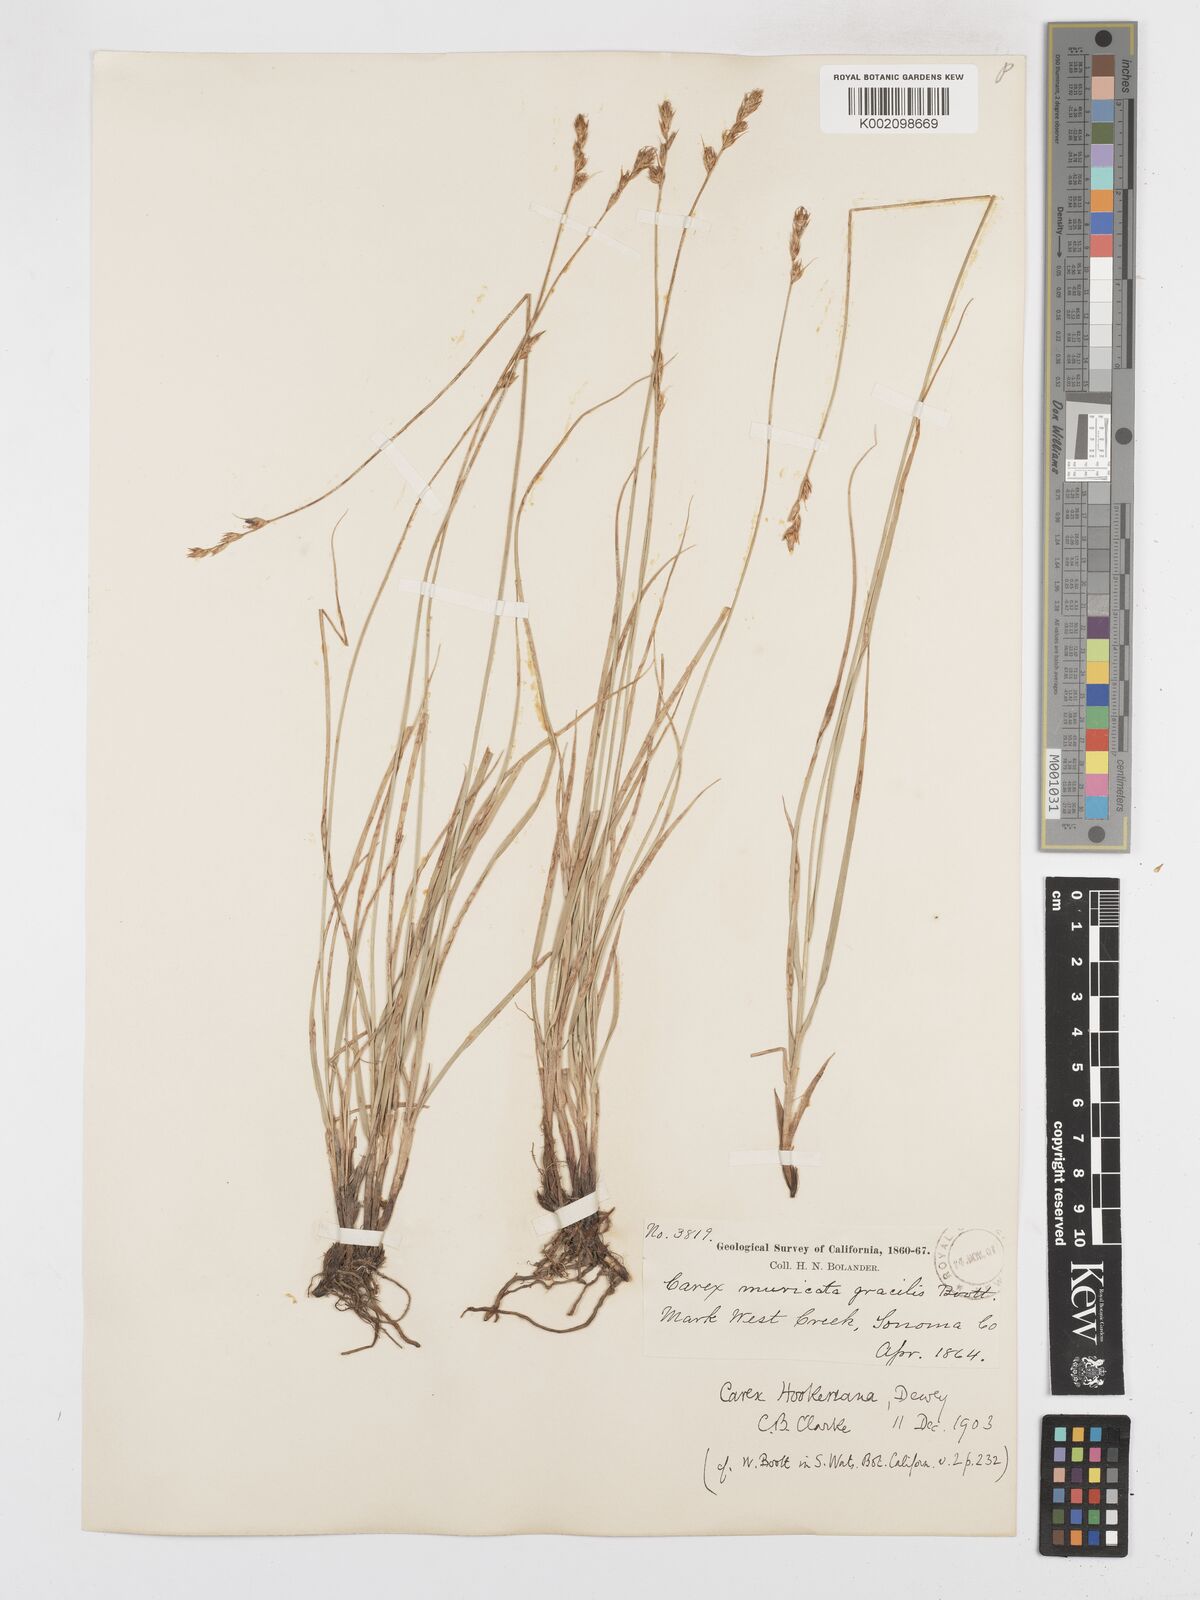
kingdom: Plantae
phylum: Tracheophyta
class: Liliopsida
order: Poales
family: Cyperaceae
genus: Carex
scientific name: Carex tumulicola
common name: Splitawn sedge
